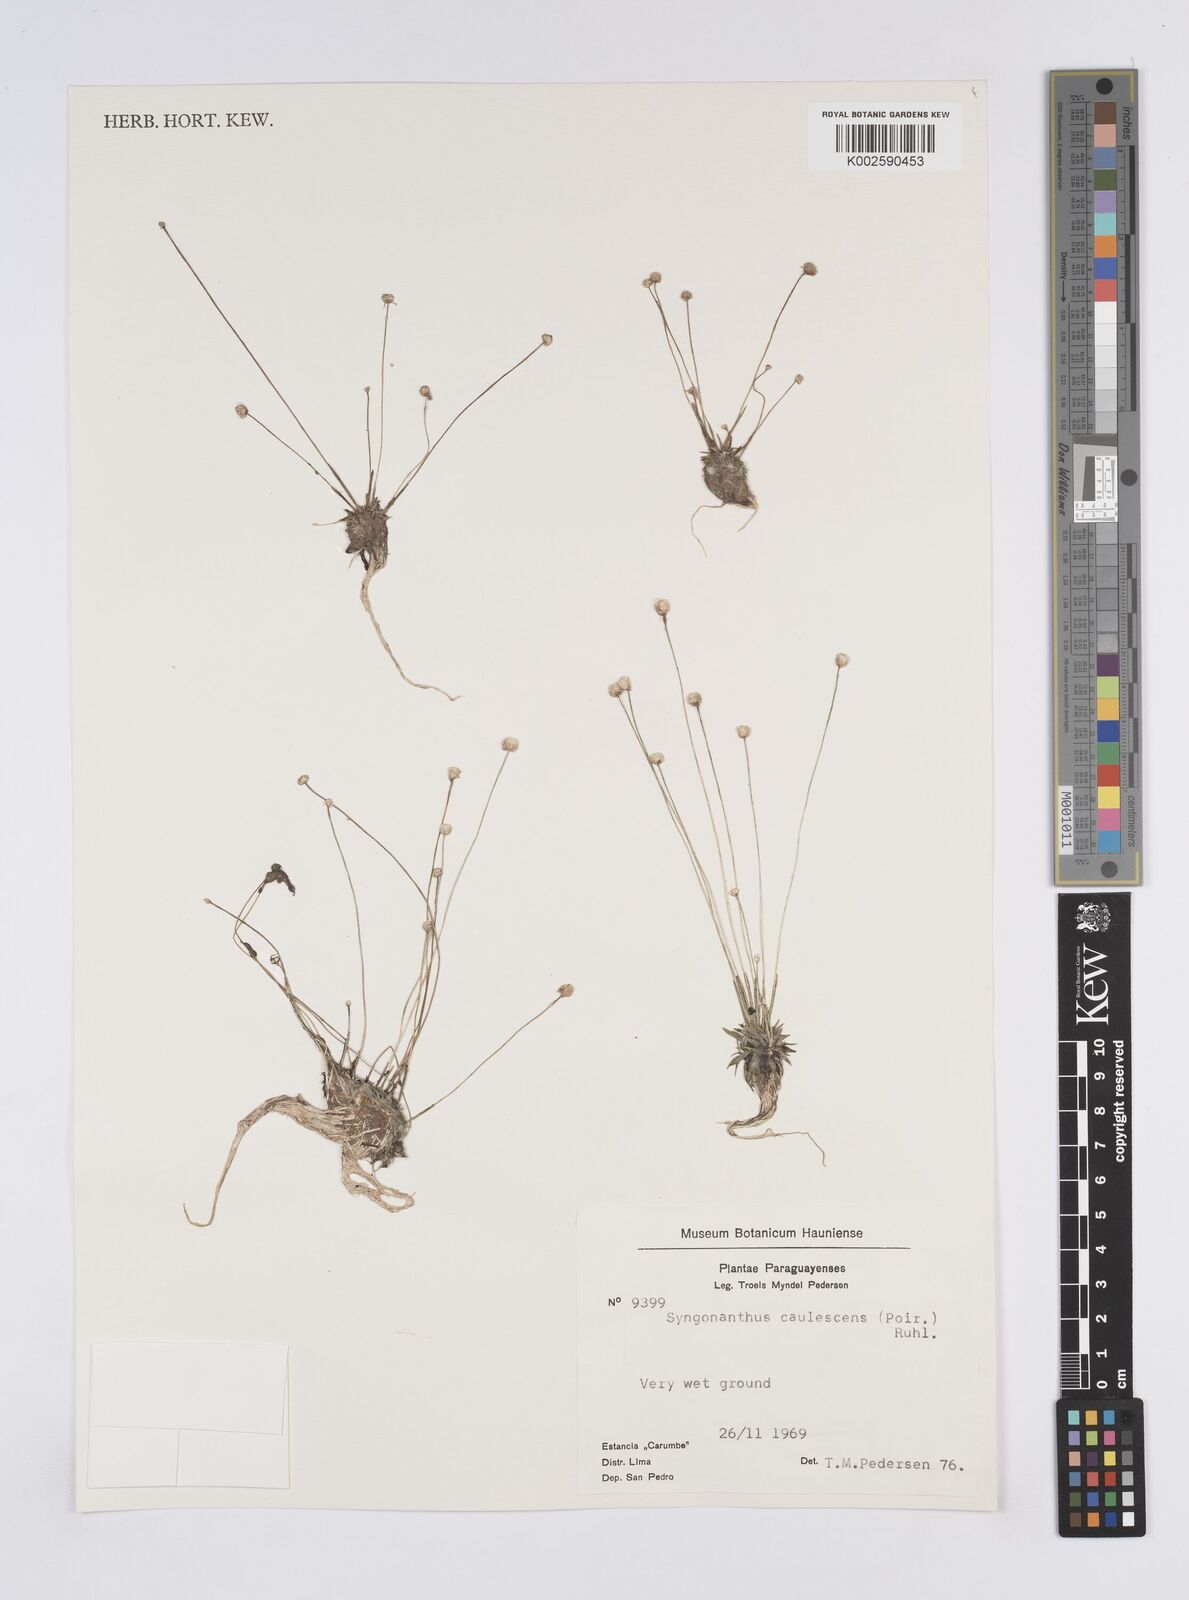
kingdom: Plantae
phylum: Tracheophyta
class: Liliopsida
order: Poales
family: Eriocaulaceae
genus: Syngonanthus
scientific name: Syngonanthus caulescens
